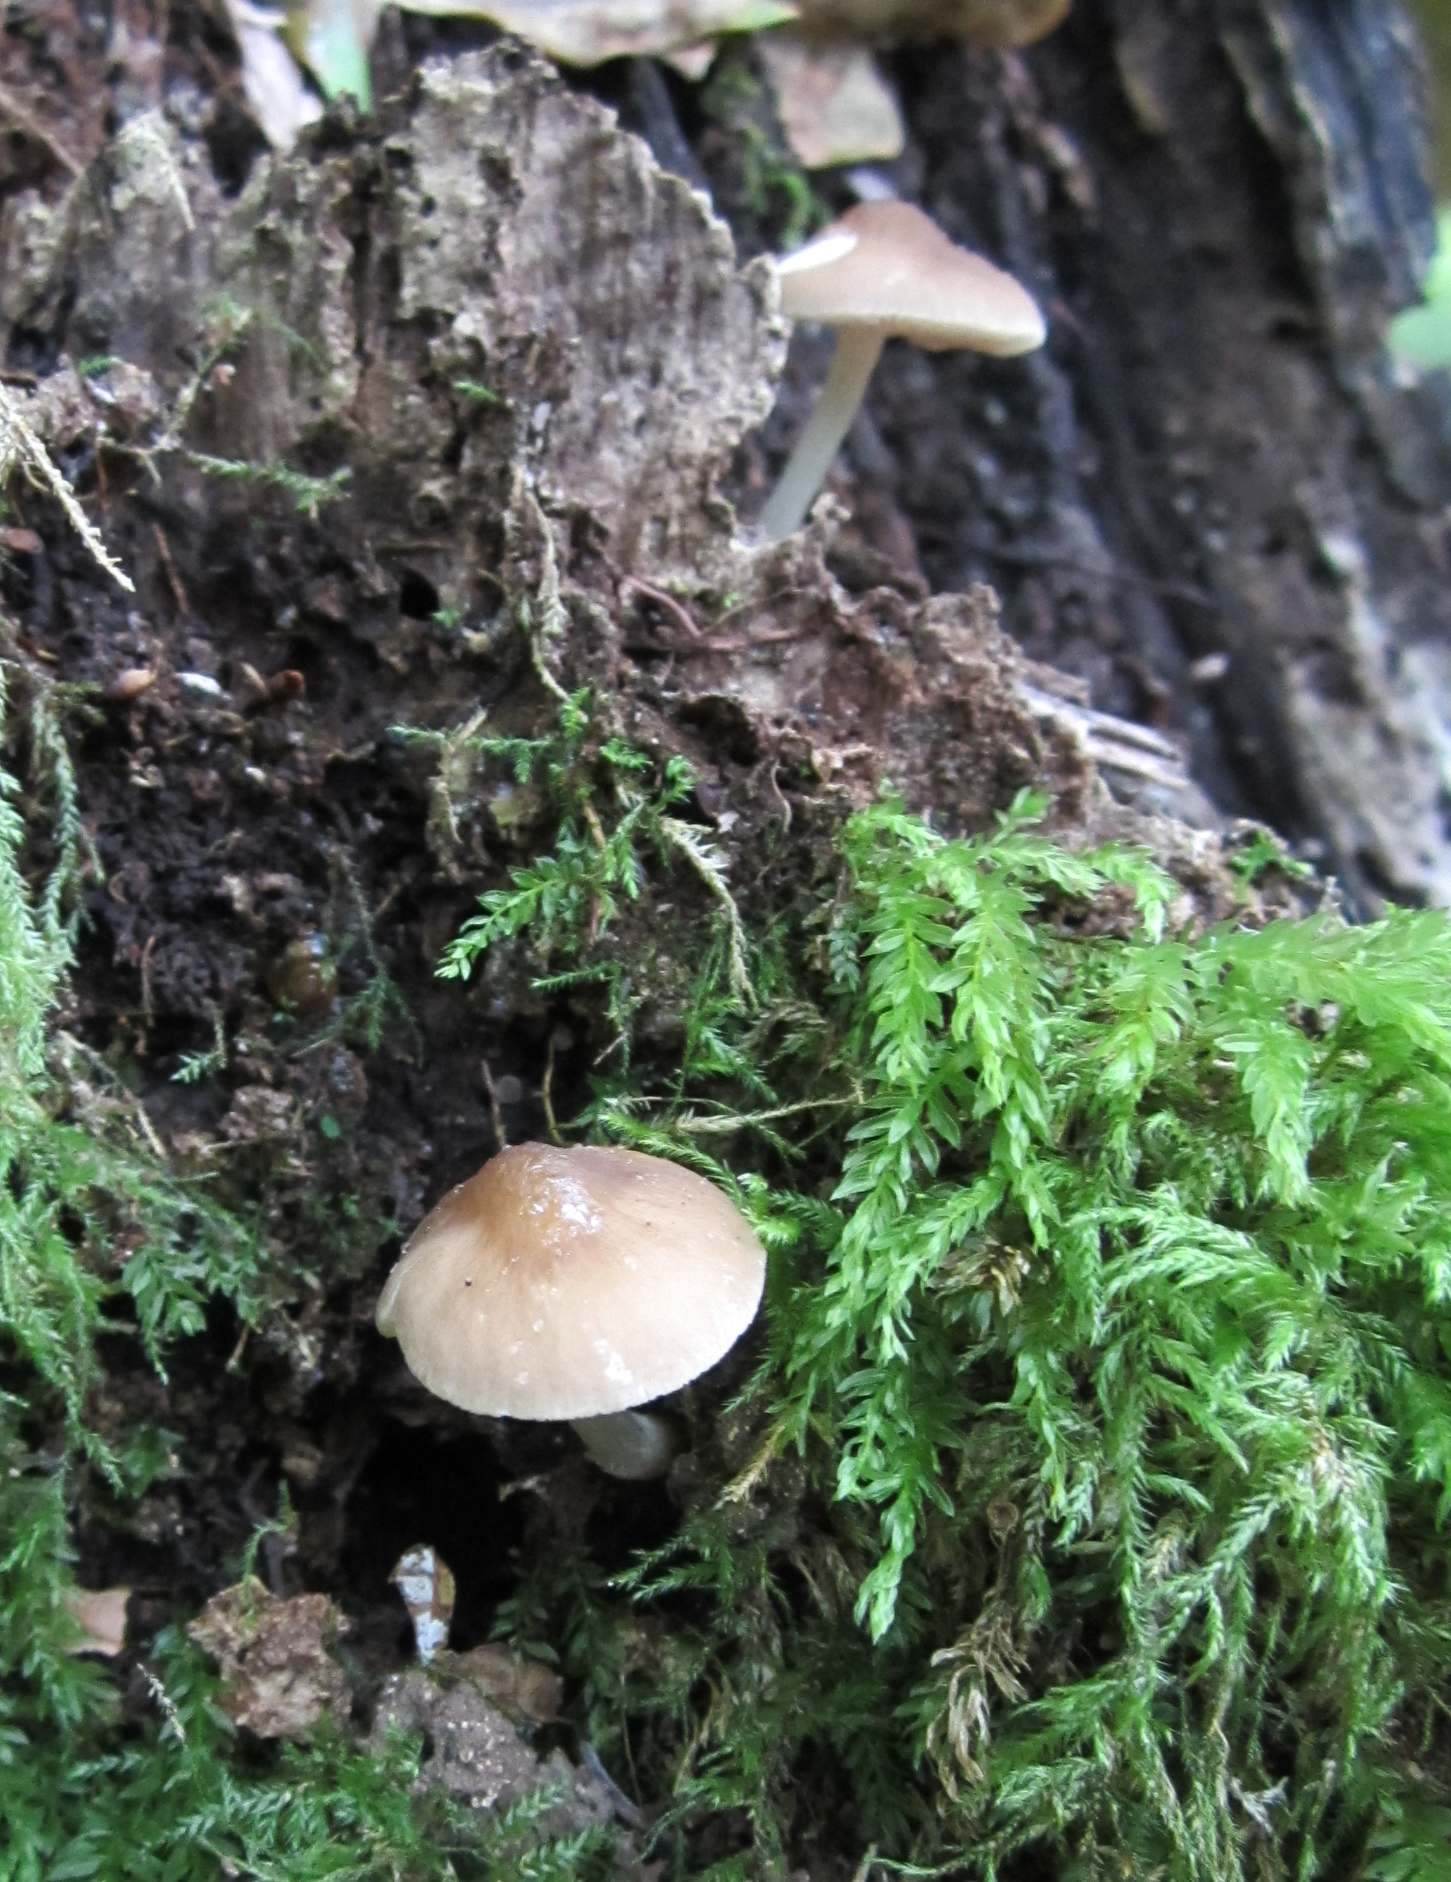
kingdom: Fungi
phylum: Basidiomycota
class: Agaricomycetes
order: Agaricales
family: Pluteaceae
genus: Pluteus
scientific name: Pluteus phlebophorus
